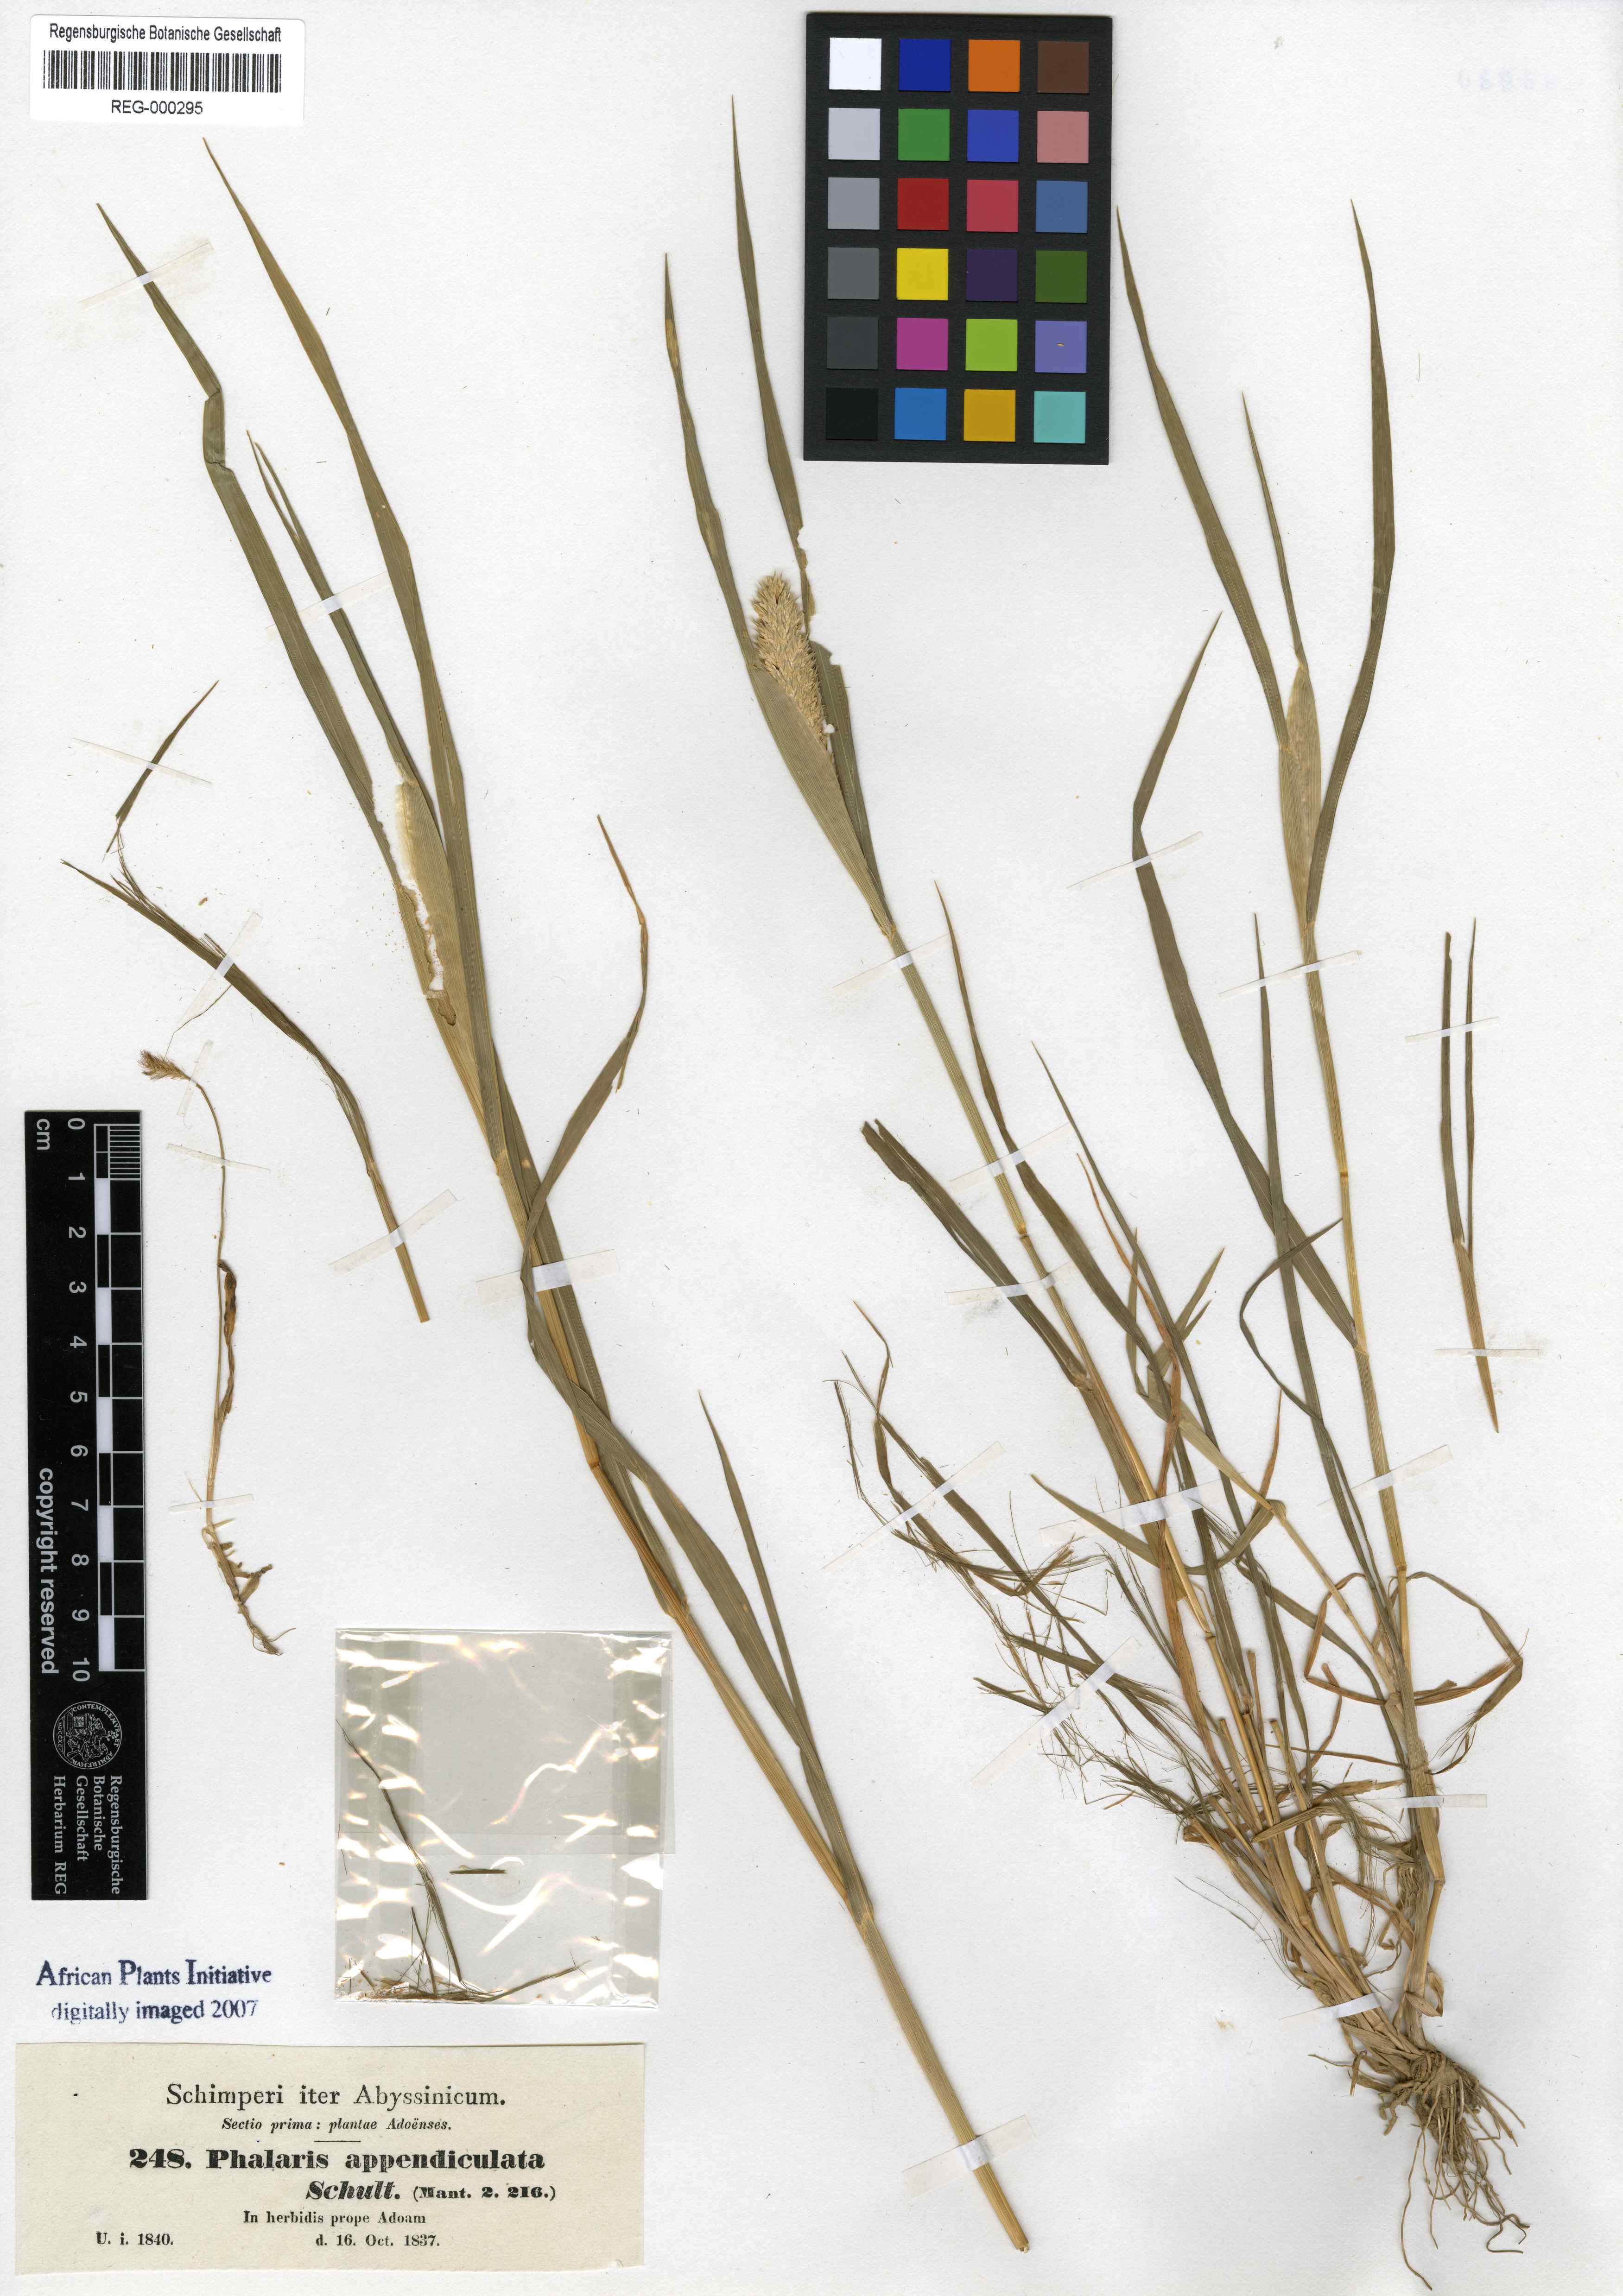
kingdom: Plantae
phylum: Tracheophyta
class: Liliopsida
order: Poales
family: Poaceae
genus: Phalaris
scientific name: Phalaris paradoxa
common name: Awned canary-grass
